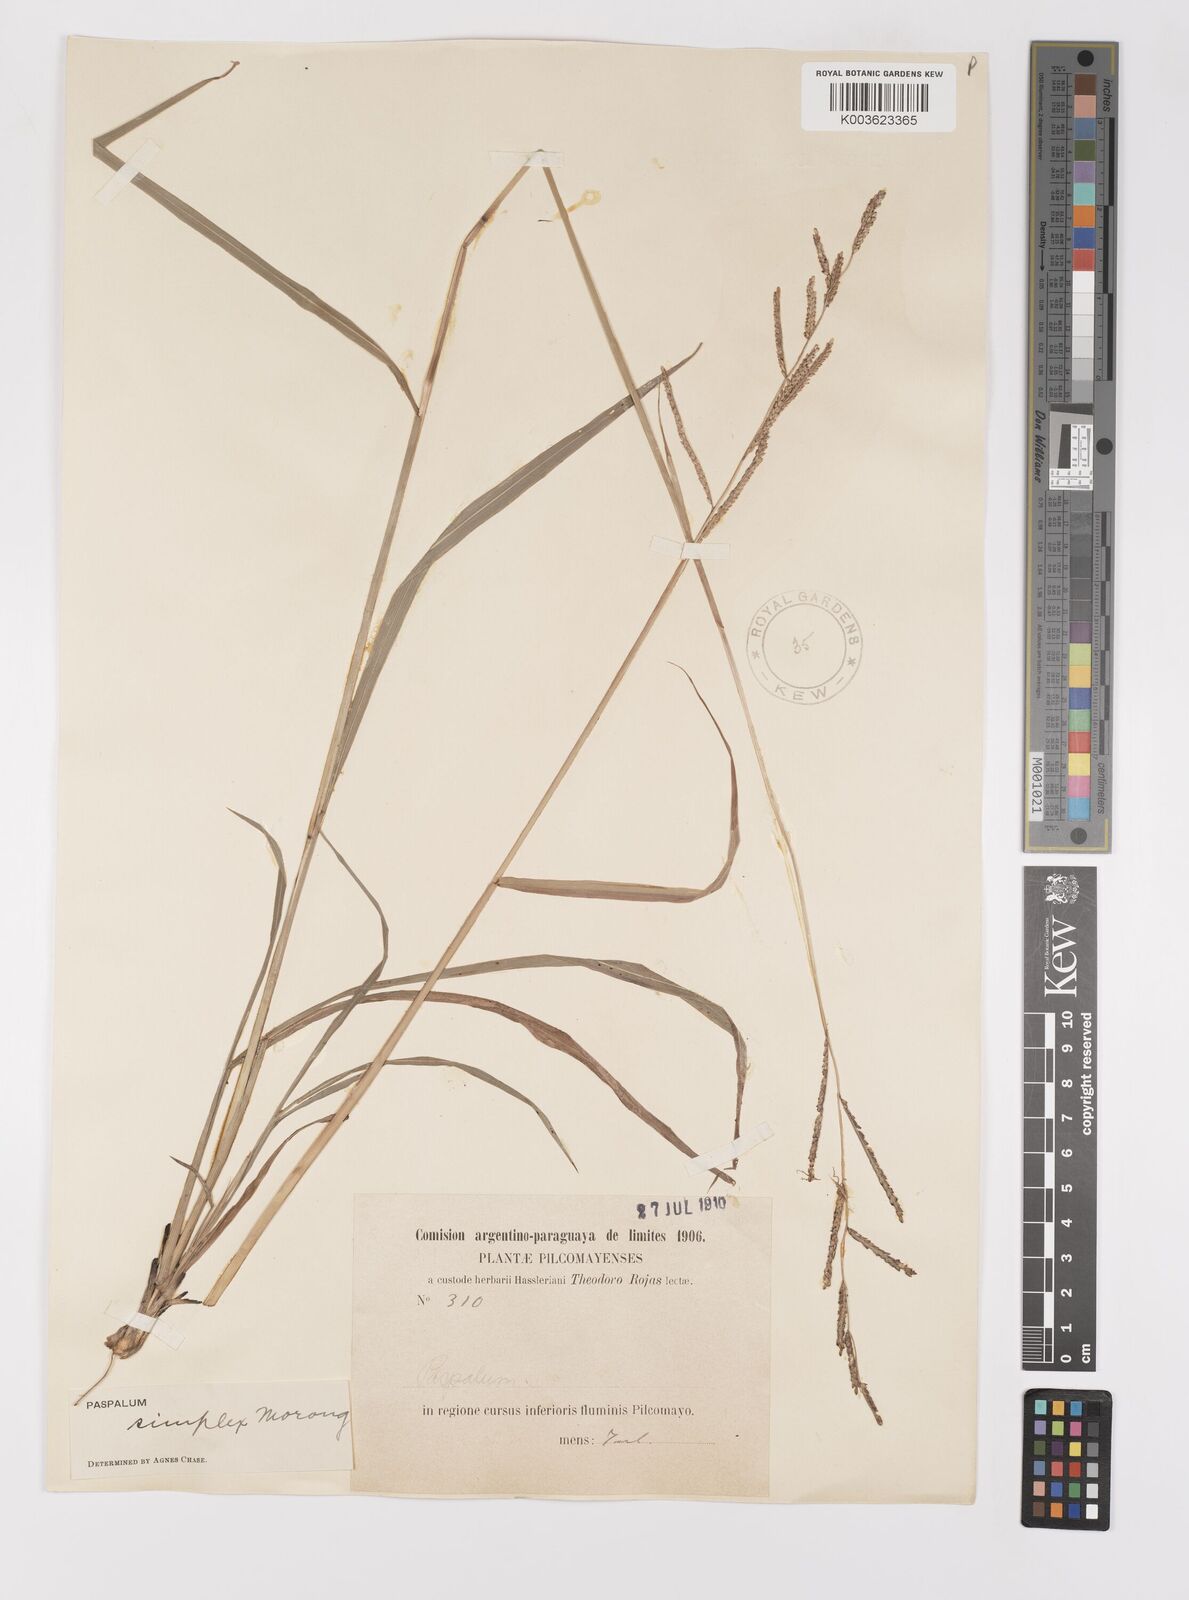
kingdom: Plantae
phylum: Tracheophyta
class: Liliopsida
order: Poales
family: Poaceae
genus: Paspalum
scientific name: Paspalum simplex
